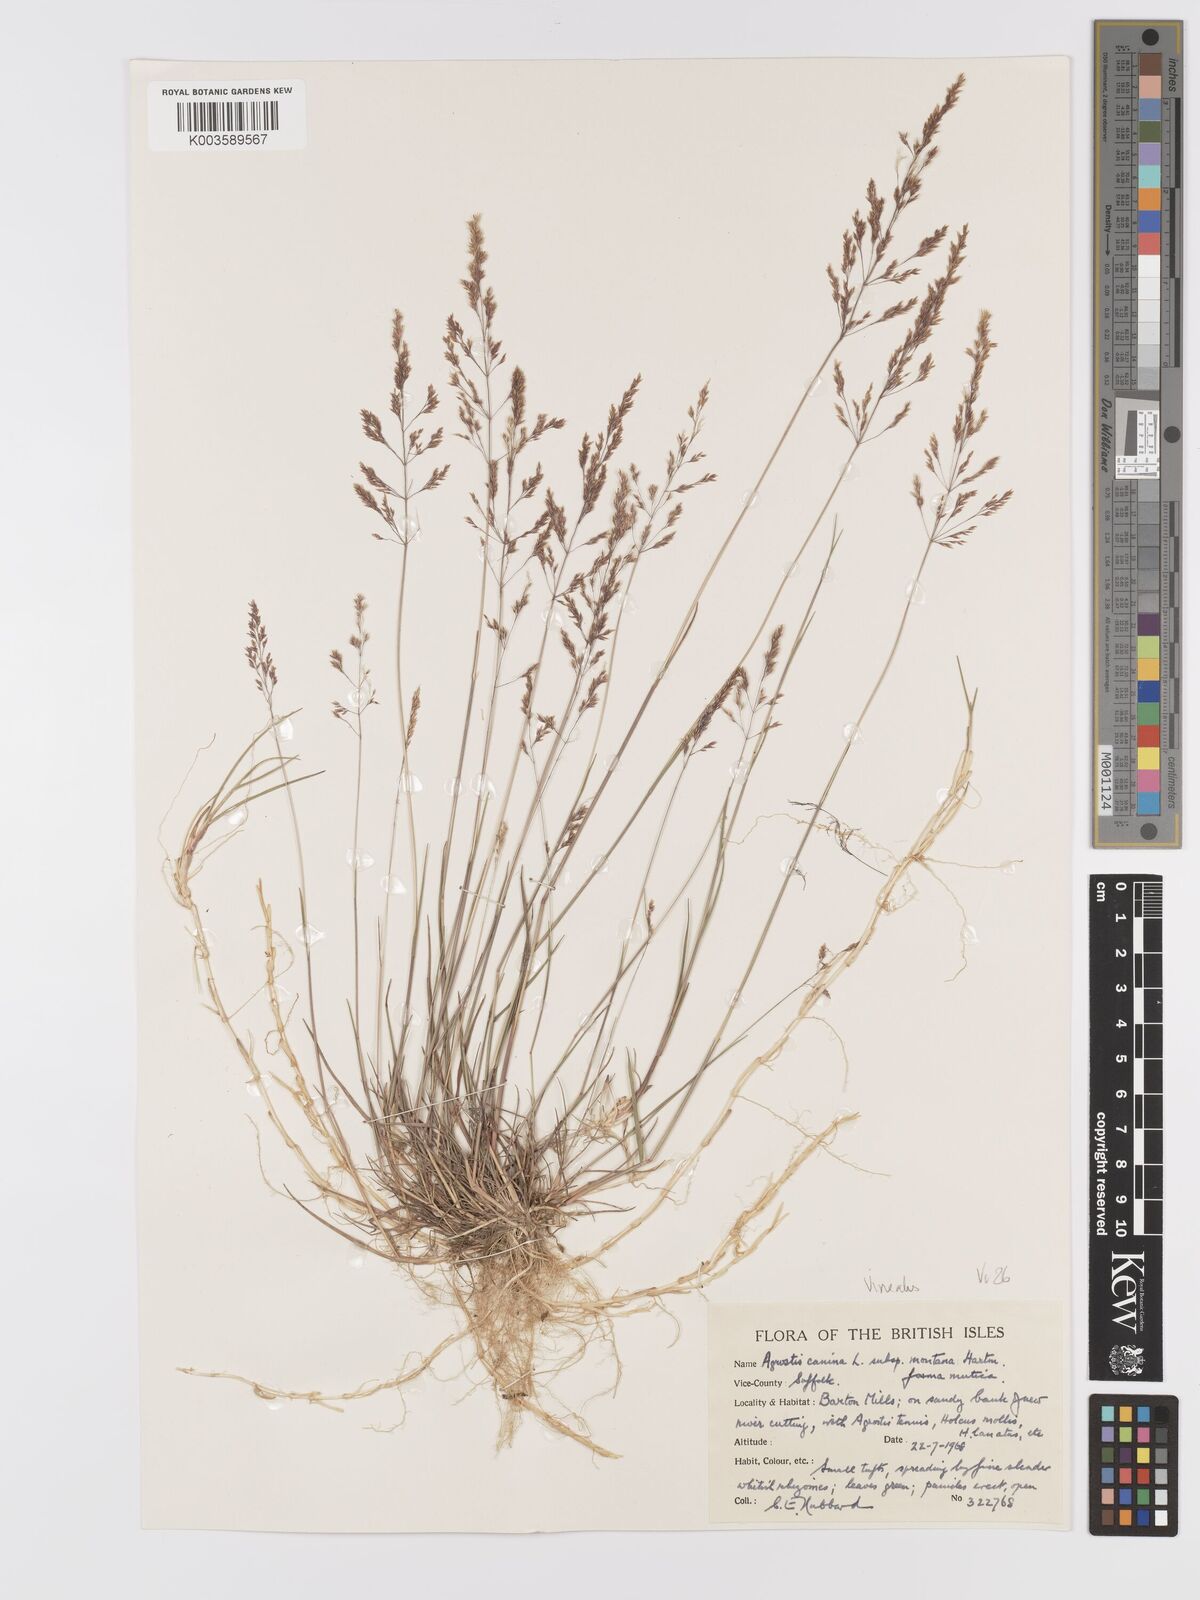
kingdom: Plantae
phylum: Tracheophyta
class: Liliopsida
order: Poales
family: Poaceae
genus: Agrostis
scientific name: Agrostis
